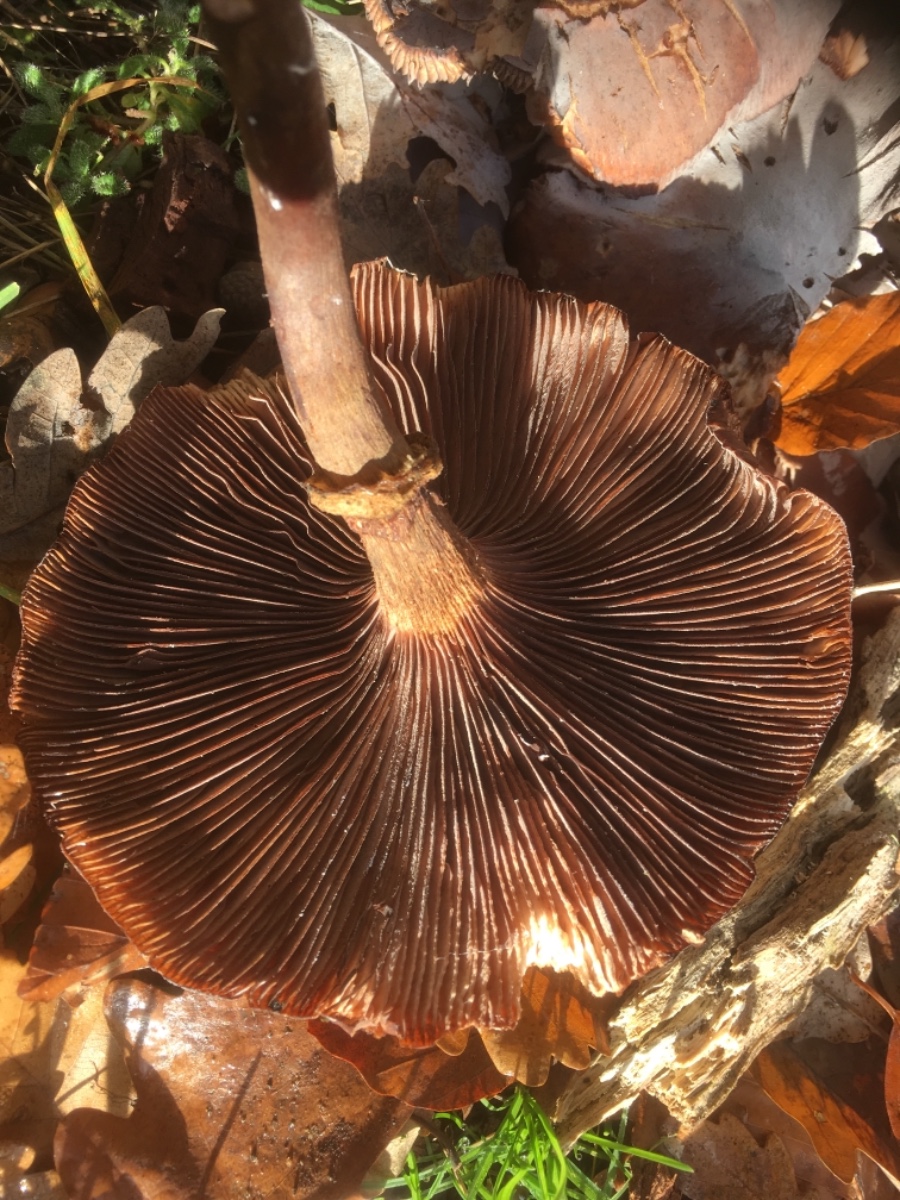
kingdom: Fungi
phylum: Basidiomycota
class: Agaricomycetes
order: Agaricales
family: Physalacriaceae
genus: Armillaria
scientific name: Armillaria
